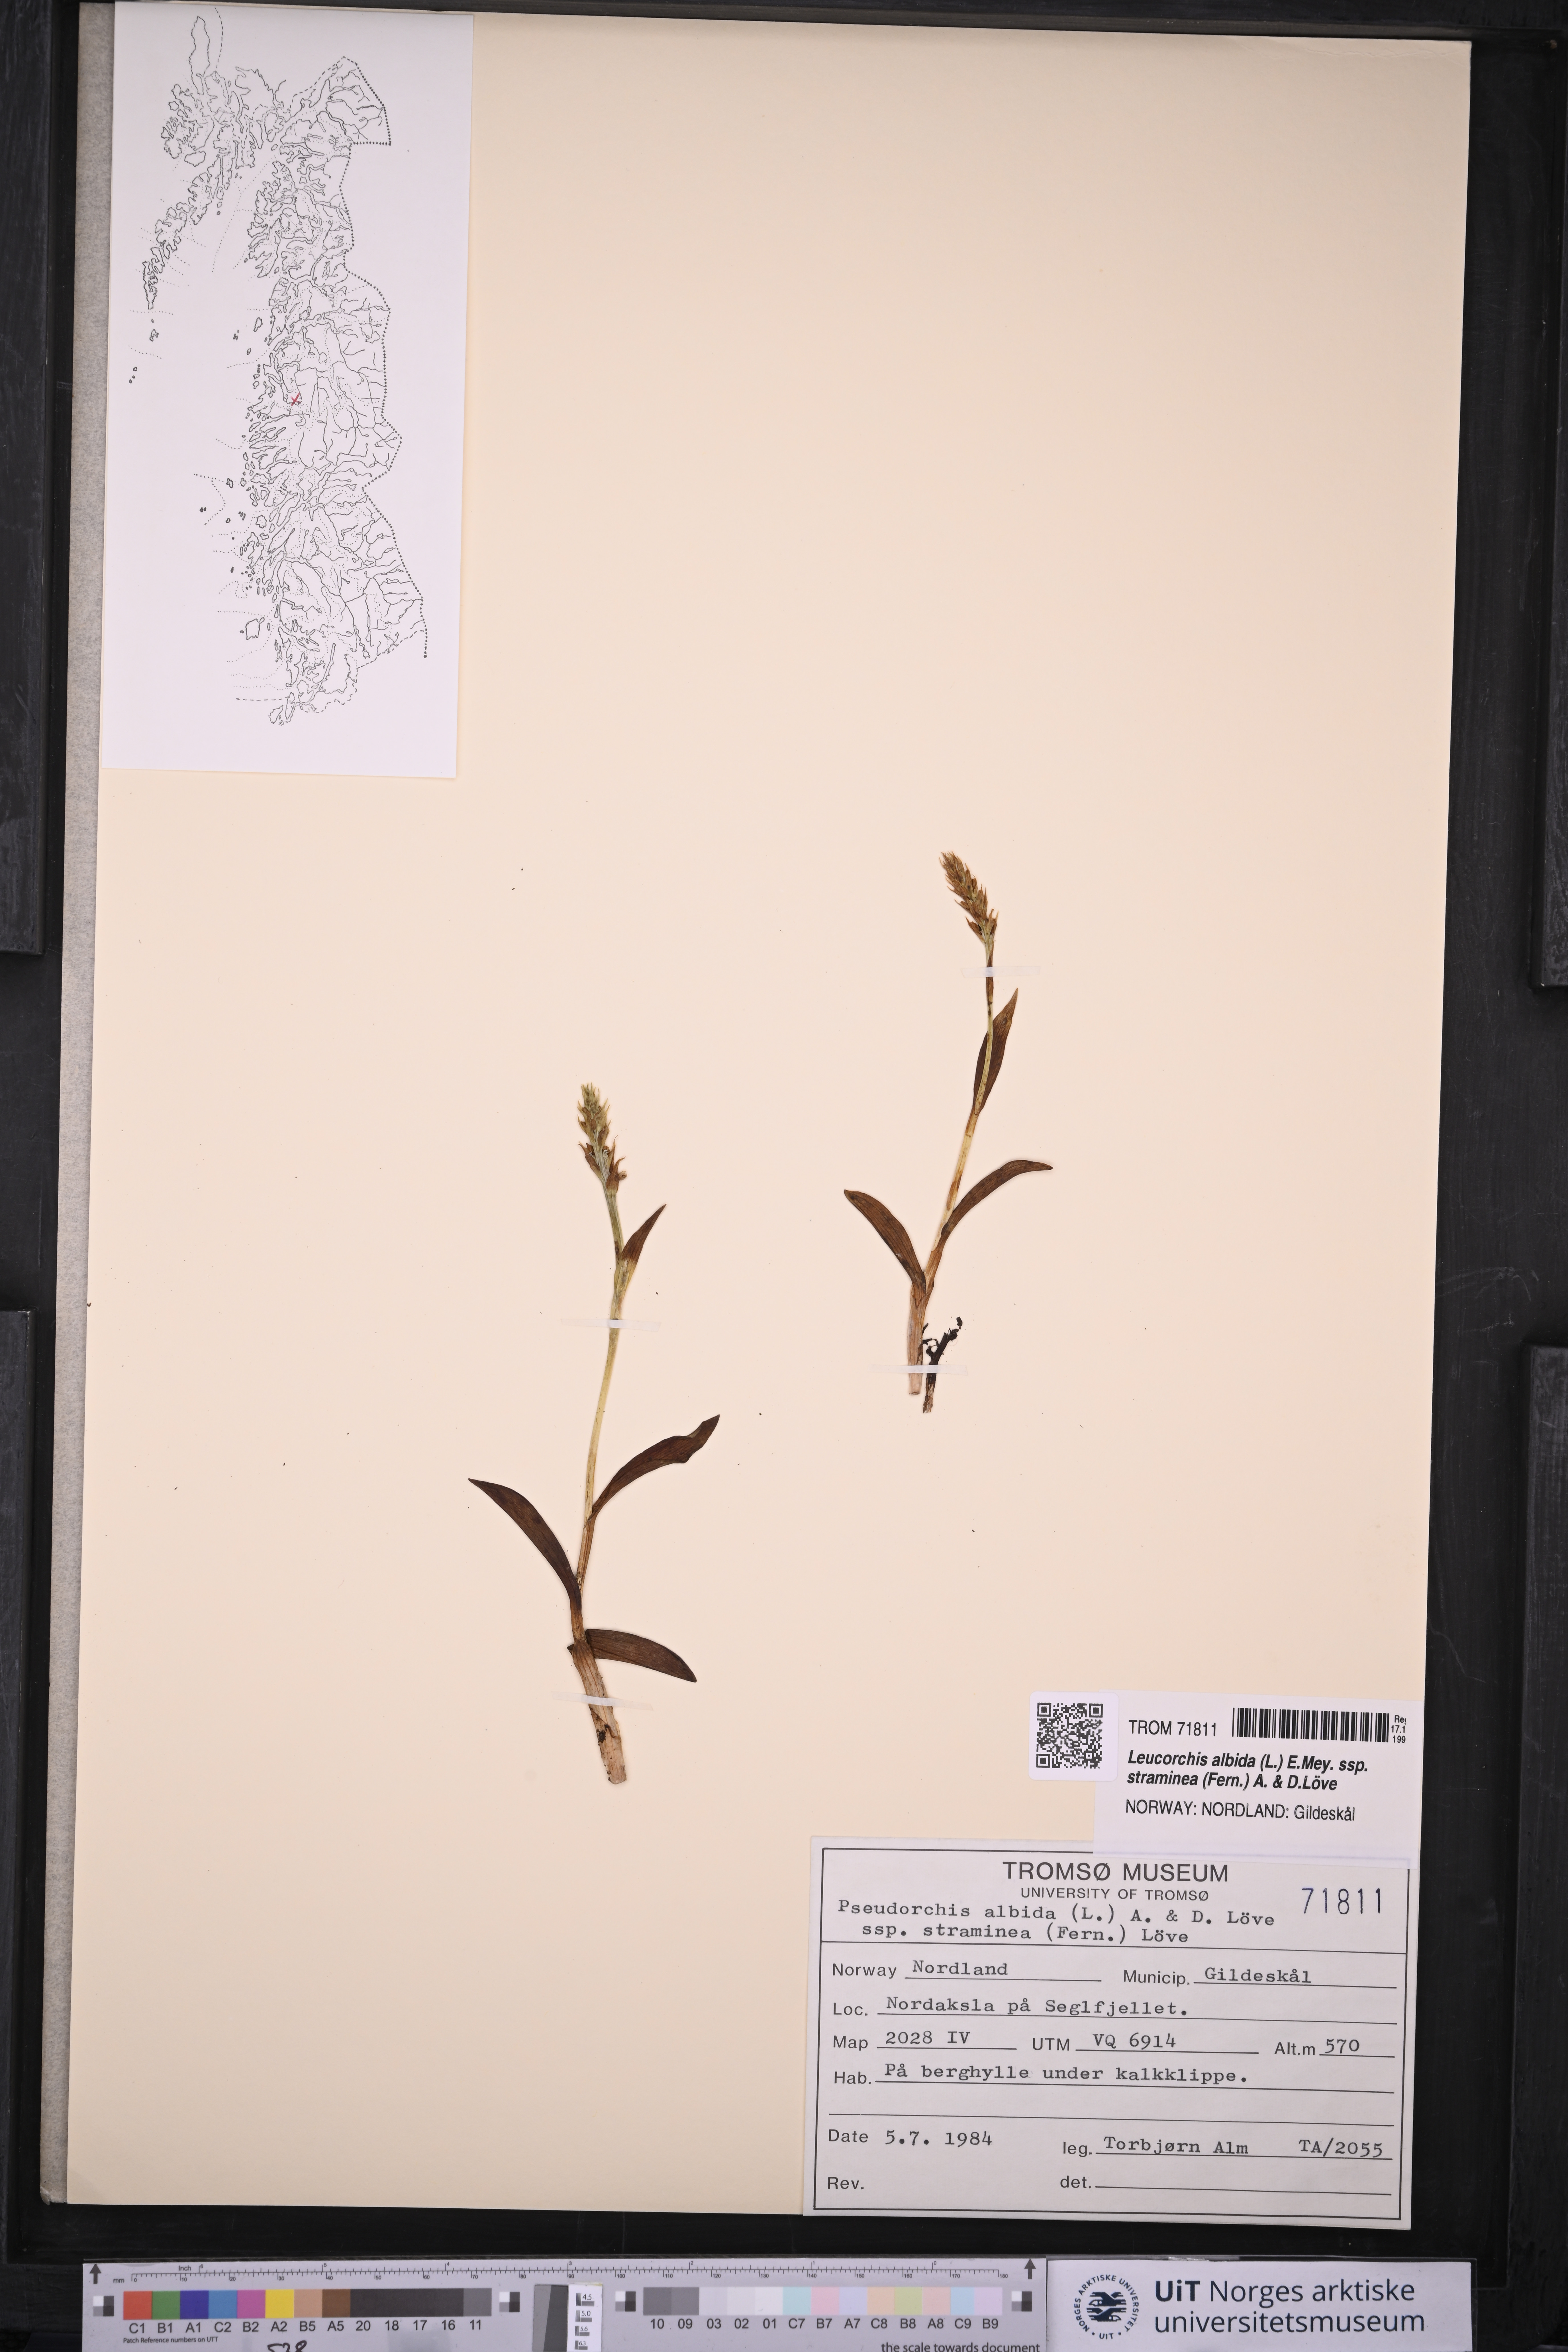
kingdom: Plantae
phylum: Tracheophyta
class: Liliopsida
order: Asparagales
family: Orchidaceae
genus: Pseudorchis
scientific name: Pseudorchis straminea
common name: Vanilla-scented bog orchid
